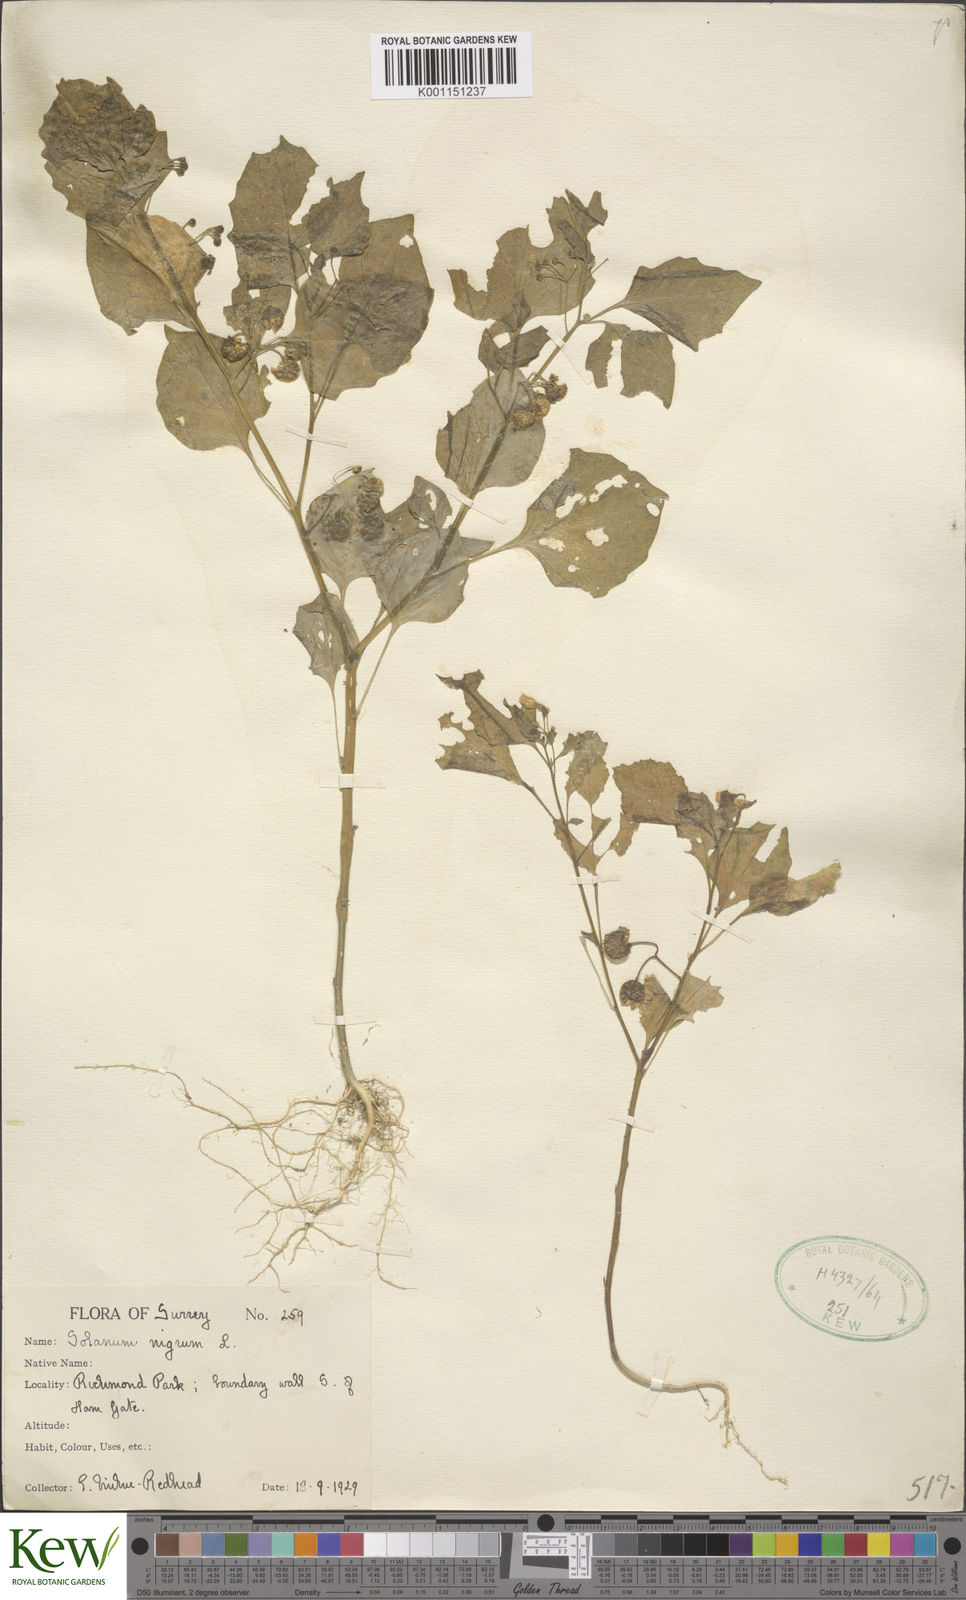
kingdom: Plantae
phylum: Tracheophyta
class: Magnoliopsida
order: Solanales
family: Solanaceae
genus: Solanum
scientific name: Solanum nigrum
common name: Black nightshade
